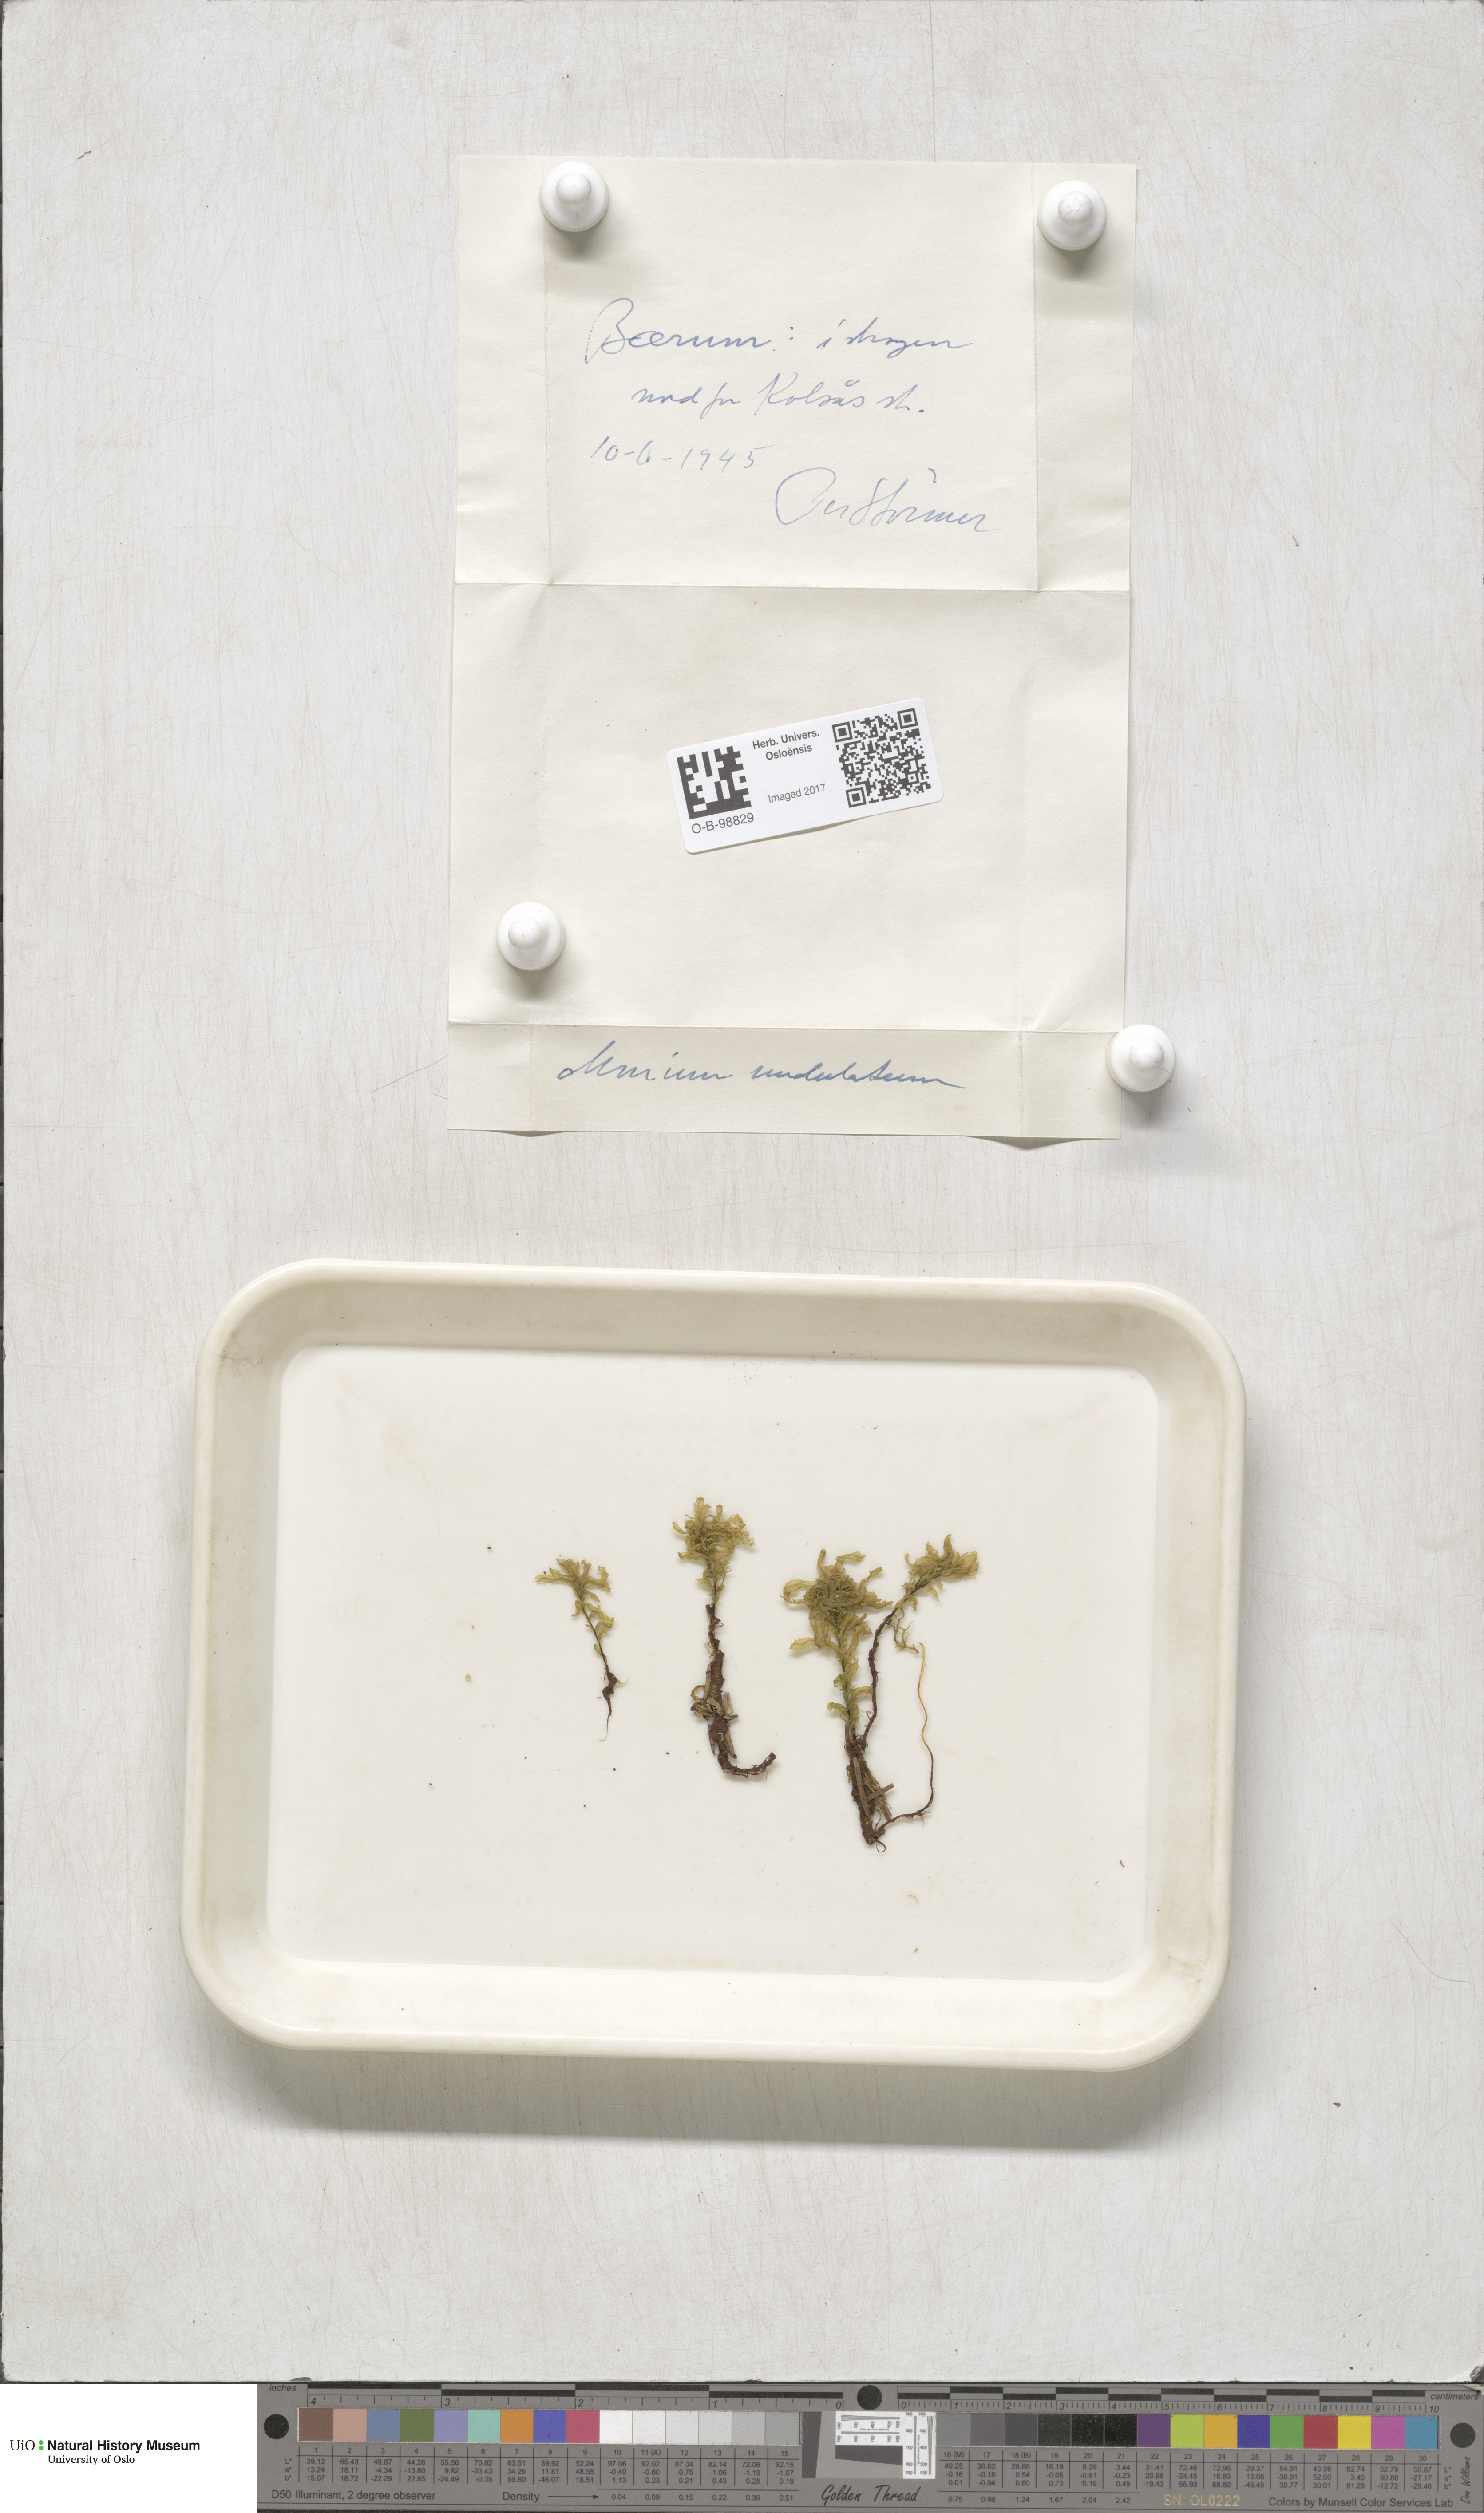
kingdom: Plantae
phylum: Bryophyta
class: Bryopsida
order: Bryales
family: Mniaceae
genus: Plagiomnium
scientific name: Plagiomnium undulatum
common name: Hart's-tongue thyme-moss
